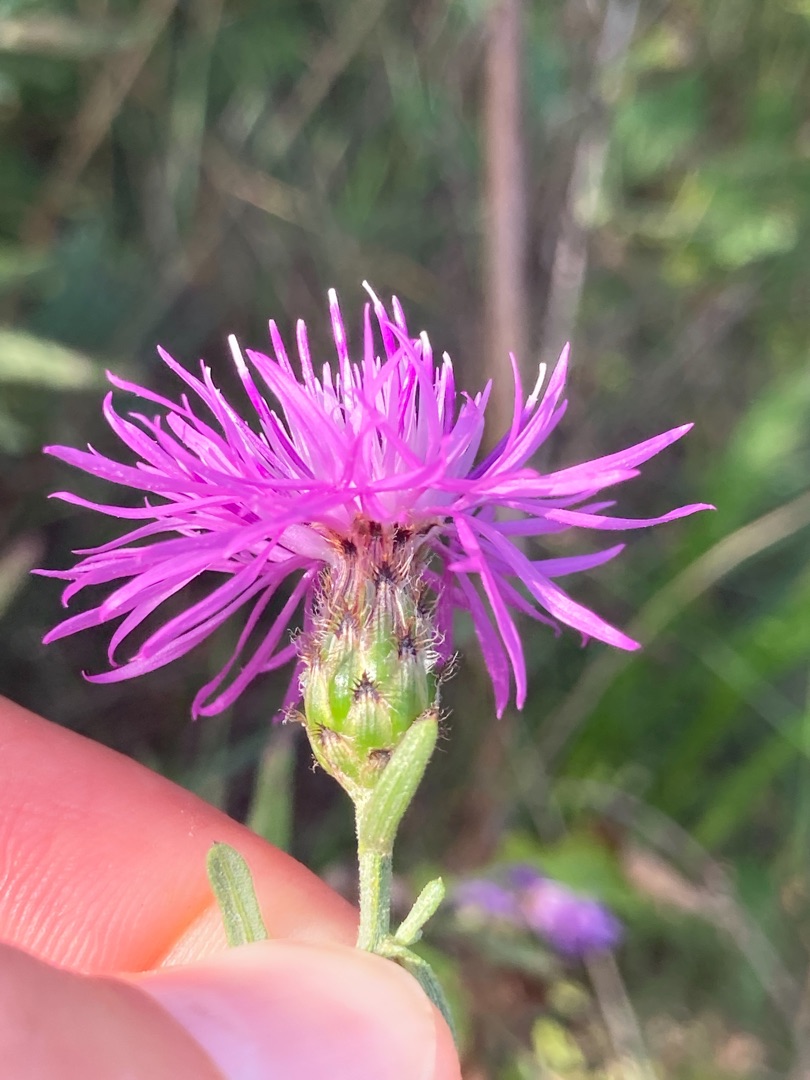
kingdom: Plantae
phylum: Tracheophyta
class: Magnoliopsida
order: Asterales
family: Asteraceae
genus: Centaurea
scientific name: Centaurea stoebe
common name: Mangegrenet knopurt
